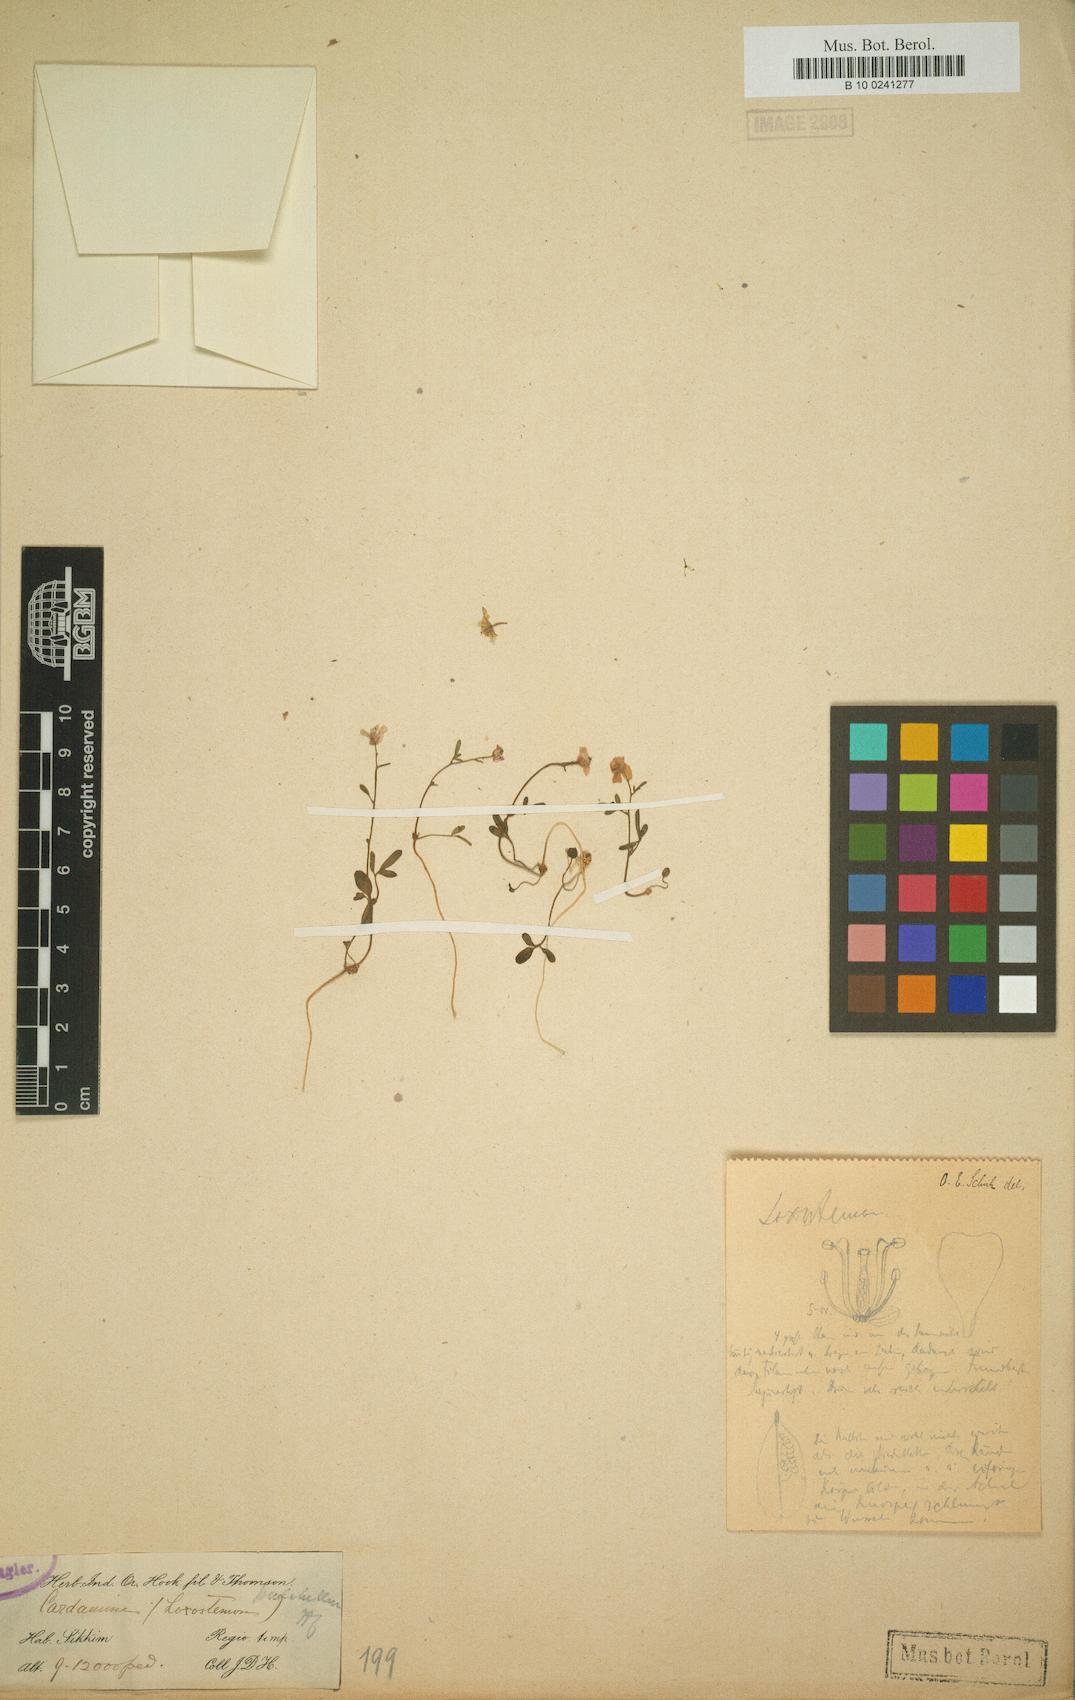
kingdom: Plantae
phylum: Tracheophyta
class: Magnoliopsida
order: Brassicales
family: Brassicaceae
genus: Cardamine
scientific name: Cardamine pulchella
